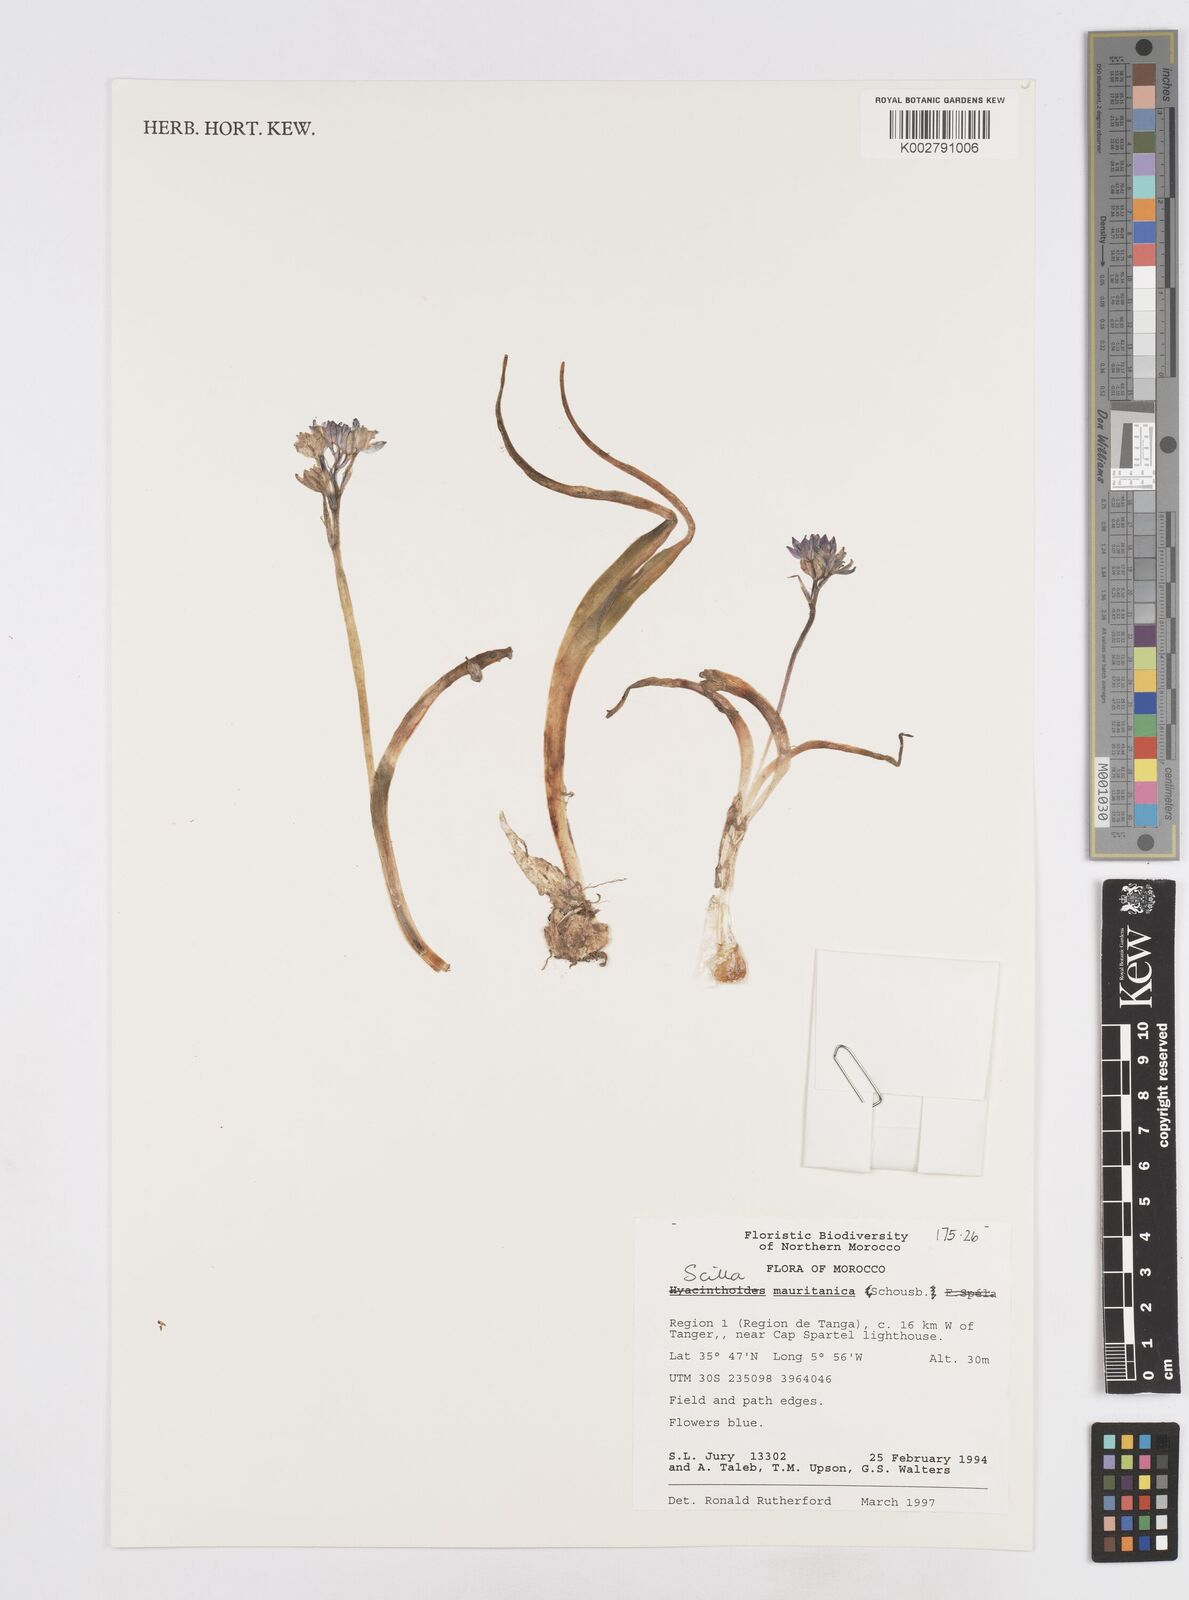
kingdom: Plantae
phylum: Tracheophyta
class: Liliopsida
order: Asparagales
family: Asparagaceae
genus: Hyacinthoides
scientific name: Hyacinthoides mauritanica
